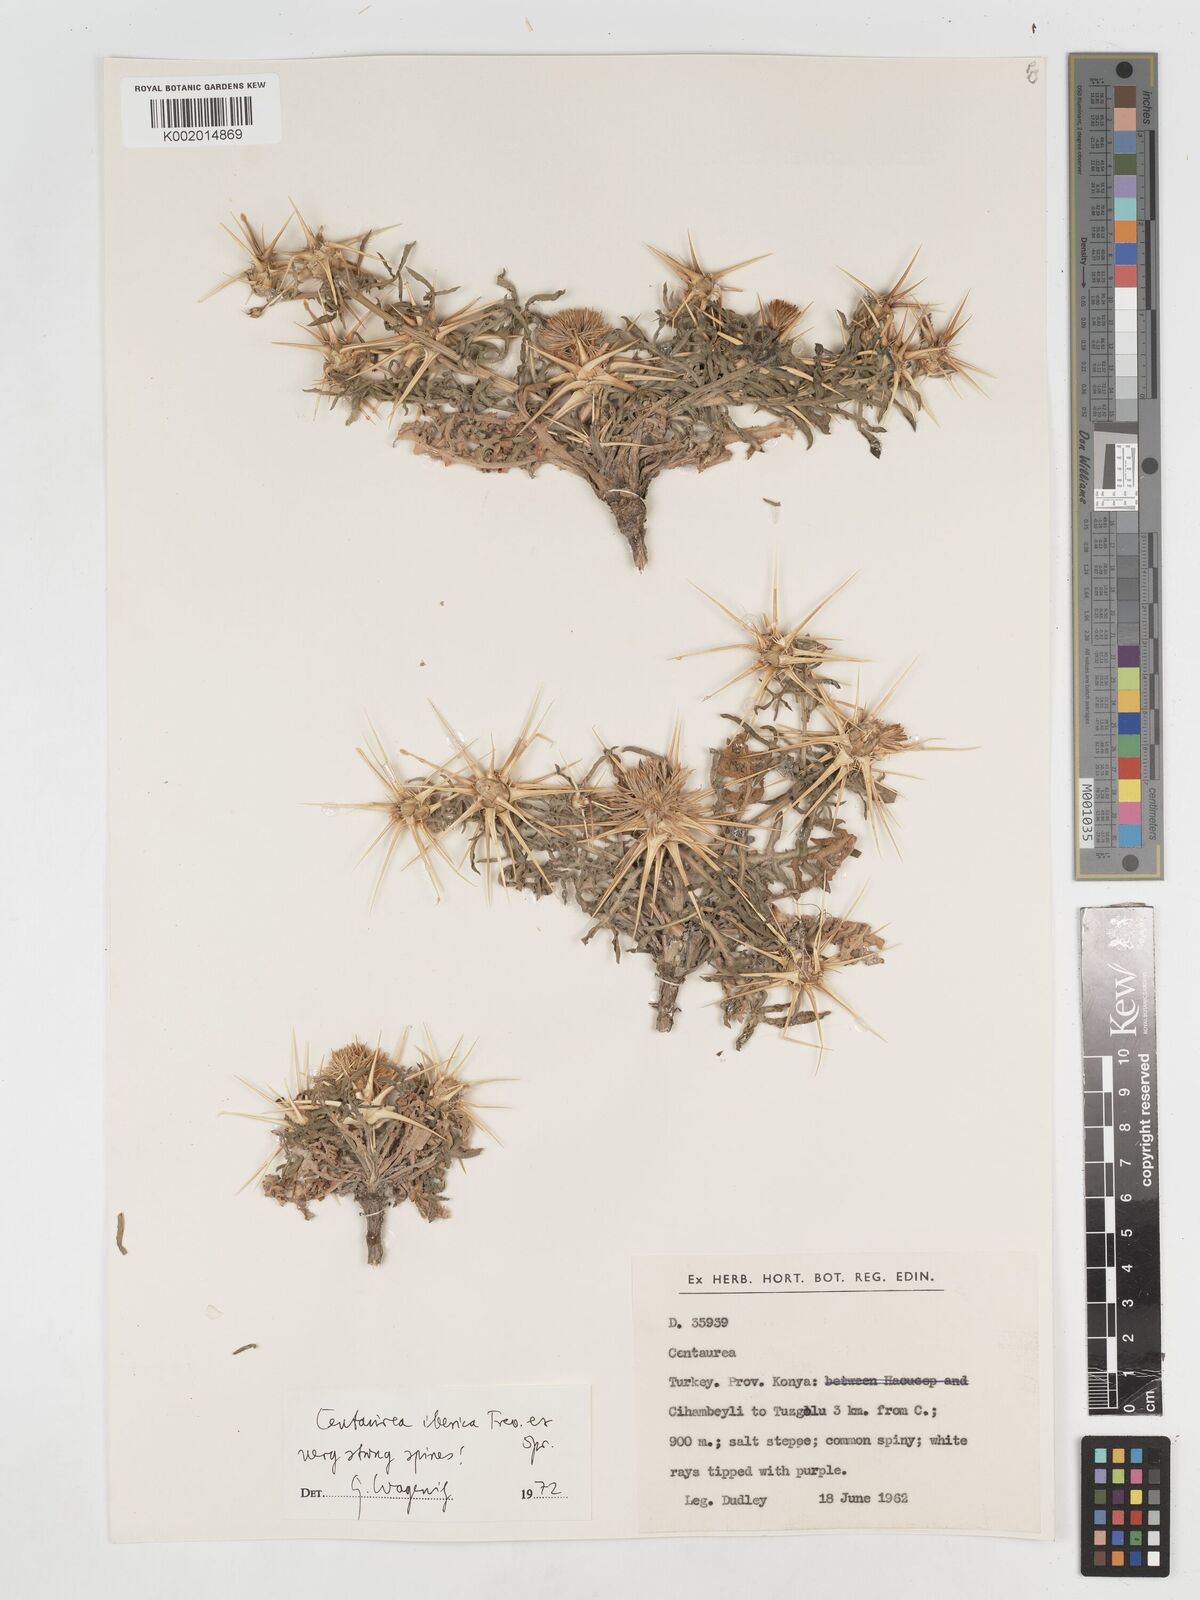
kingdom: Plantae
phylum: Tracheophyta
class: Magnoliopsida
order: Asterales
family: Asteraceae
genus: Centaurea
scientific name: Centaurea iberica
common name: Iberian knapweed
